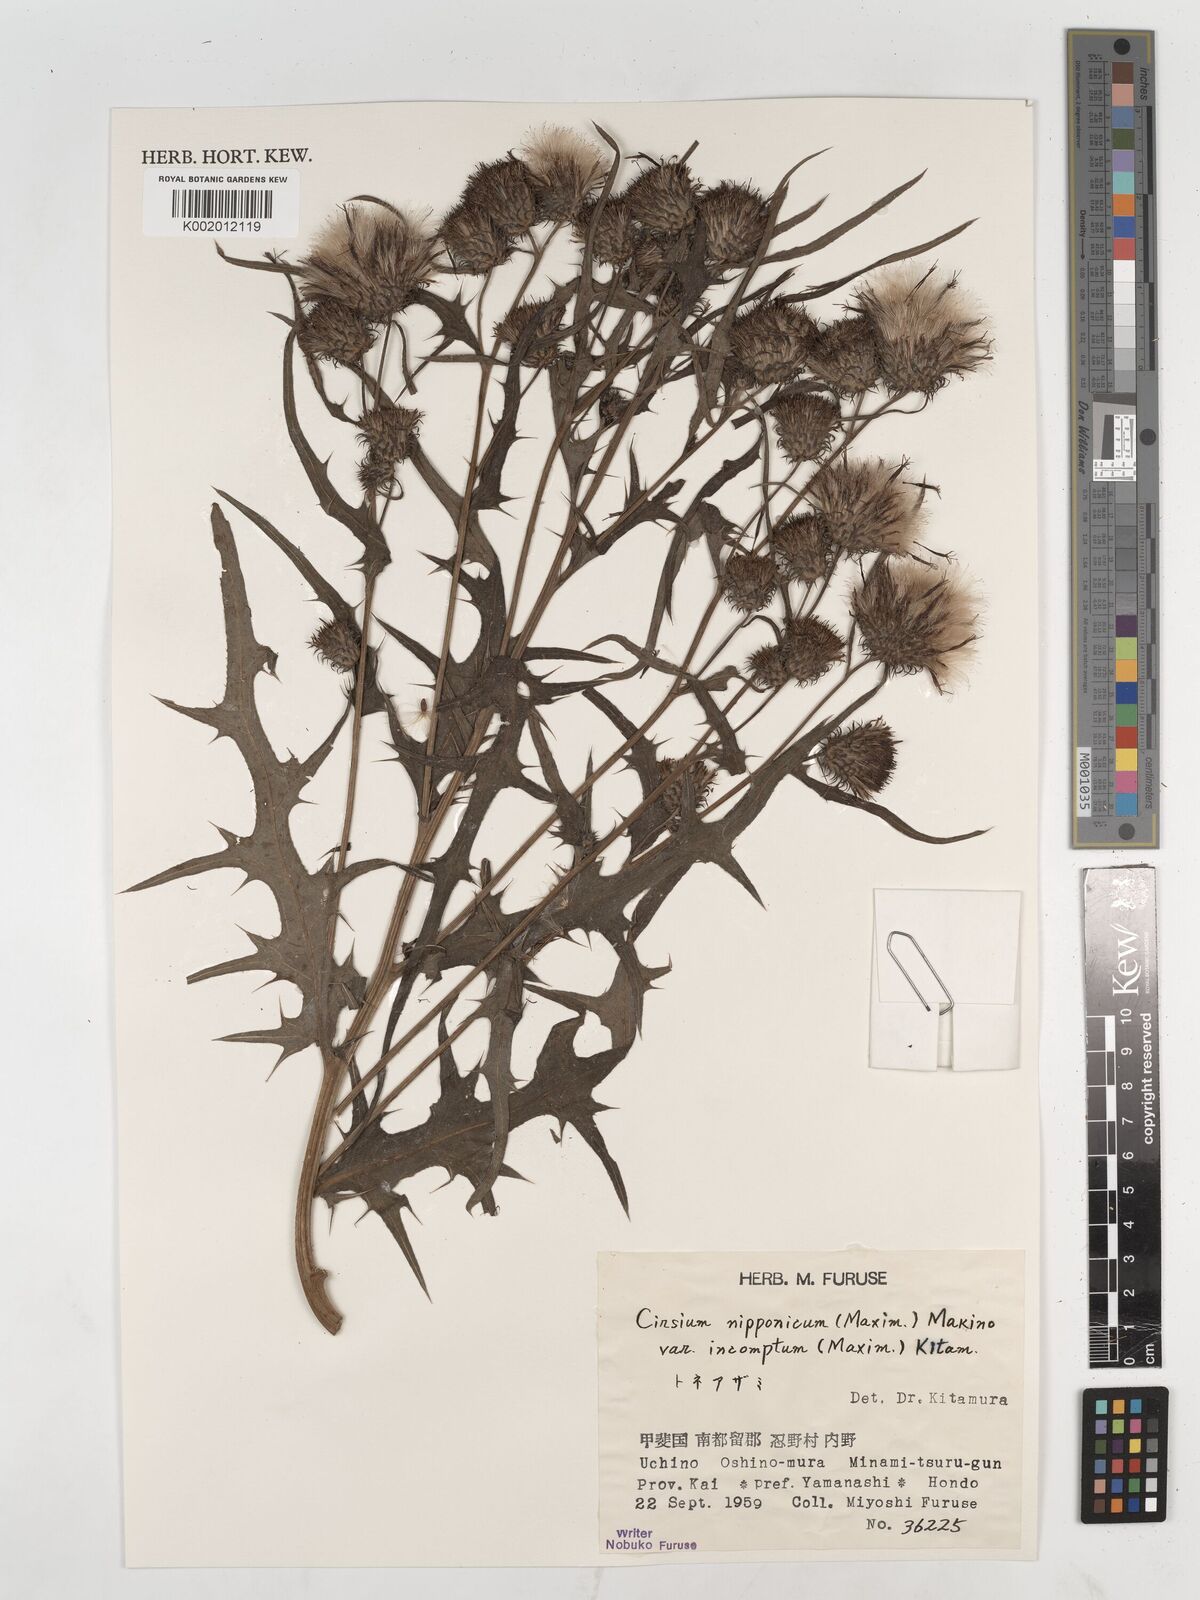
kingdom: Plantae
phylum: Tracheophyta
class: Magnoliopsida
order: Asterales
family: Asteraceae
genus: Cirsium
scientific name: Cirsium nipponicum
